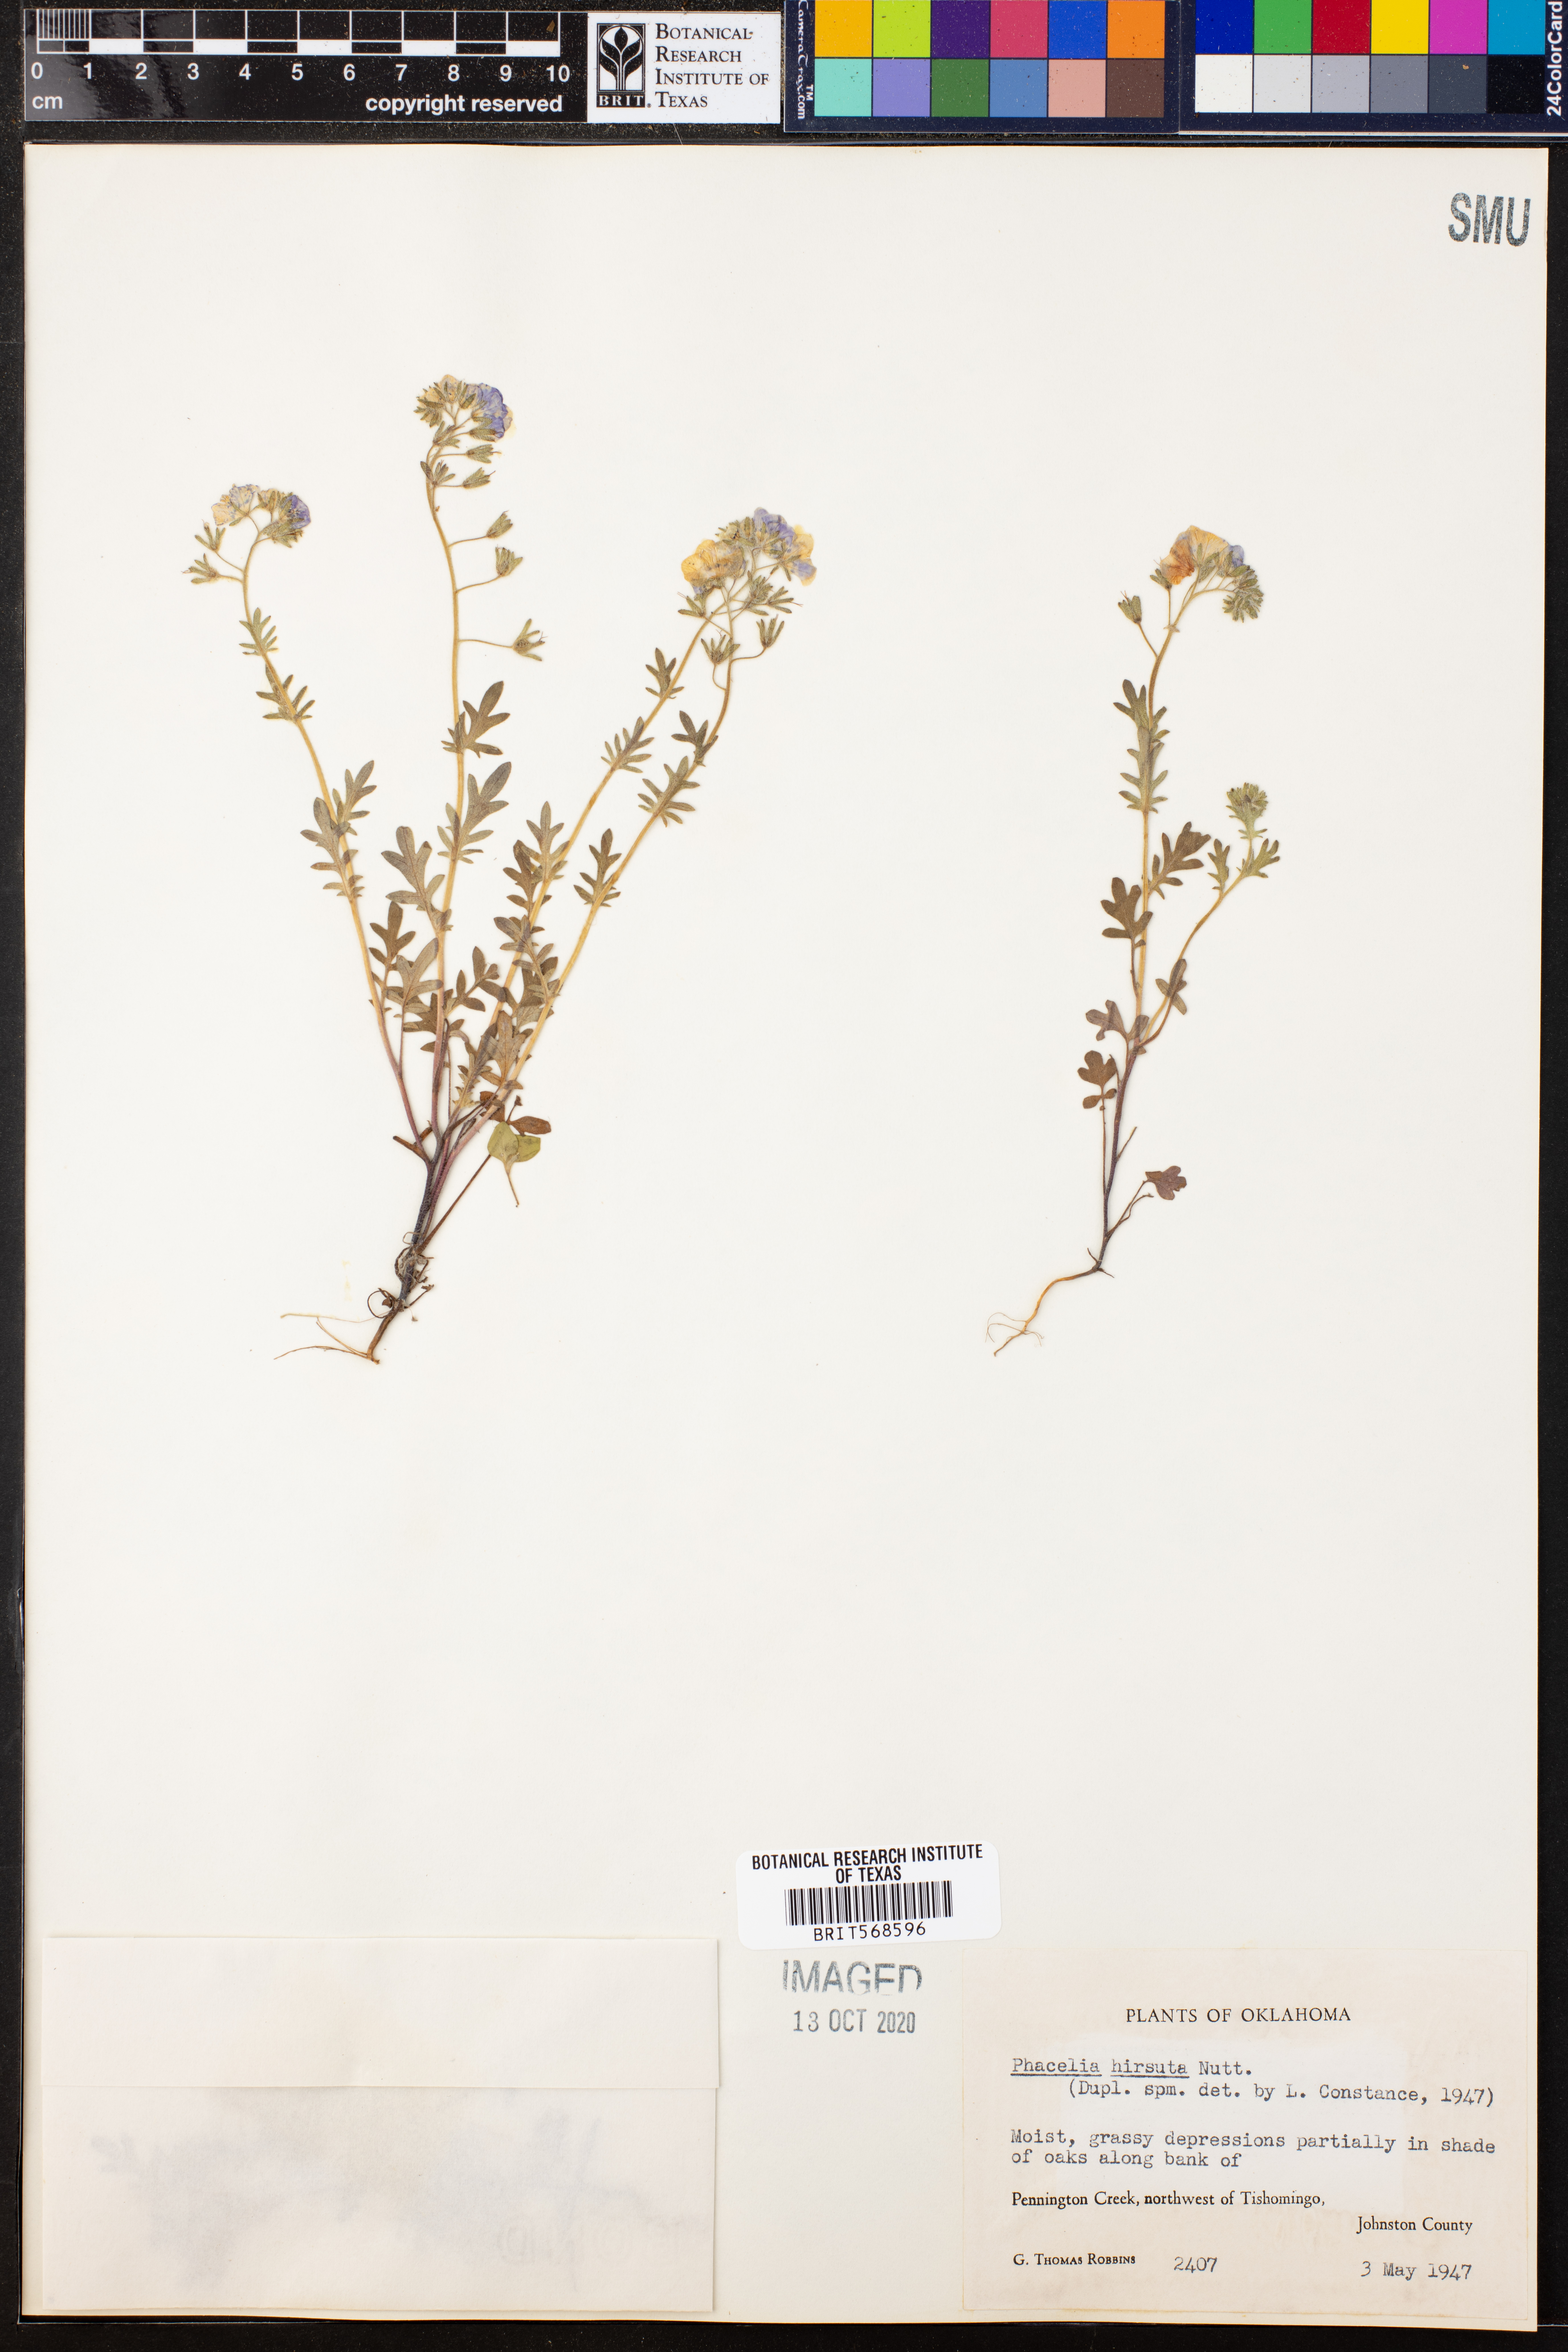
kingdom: Plantae
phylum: Tracheophyta
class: Magnoliopsida
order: Boraginales
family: Hydrophyllaceae
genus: Phacelia
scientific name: Phacelia hirsuta
